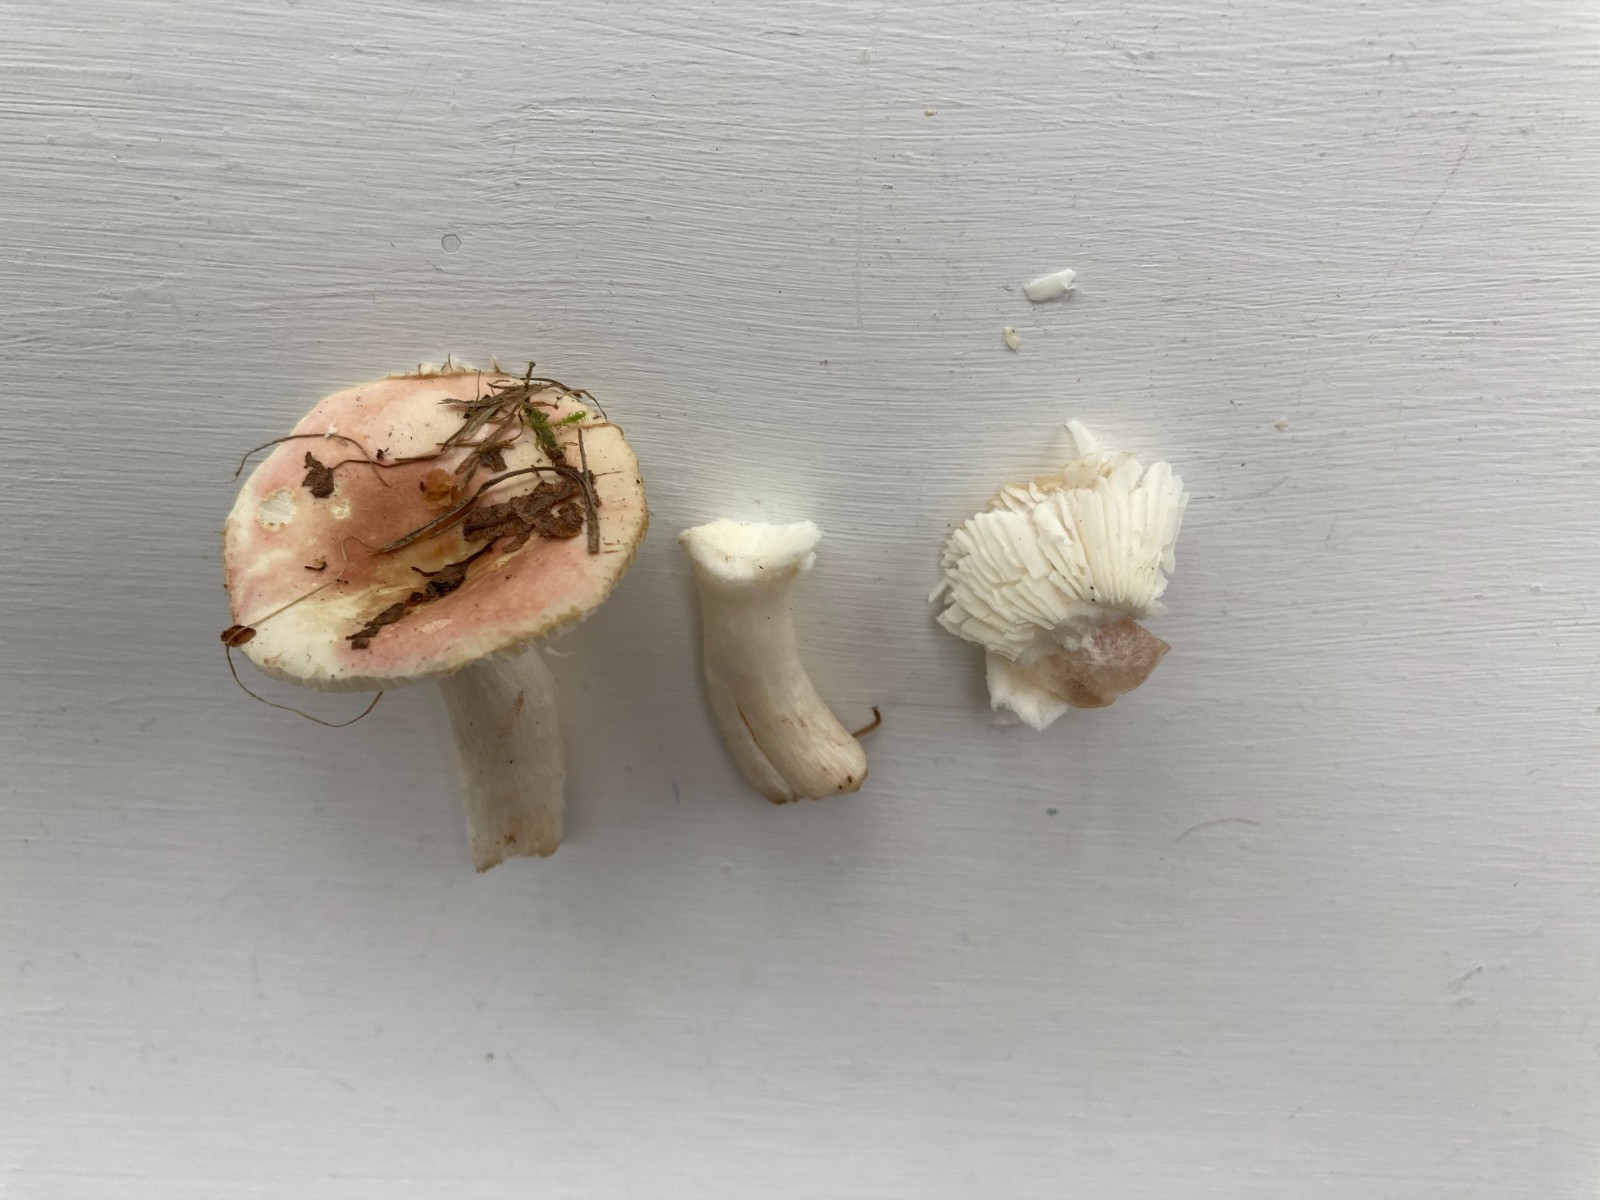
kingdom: Fungi
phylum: Basidiomycota
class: Agaricomycetes
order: Russulales
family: Russulaceae
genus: Russula
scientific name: Russula
